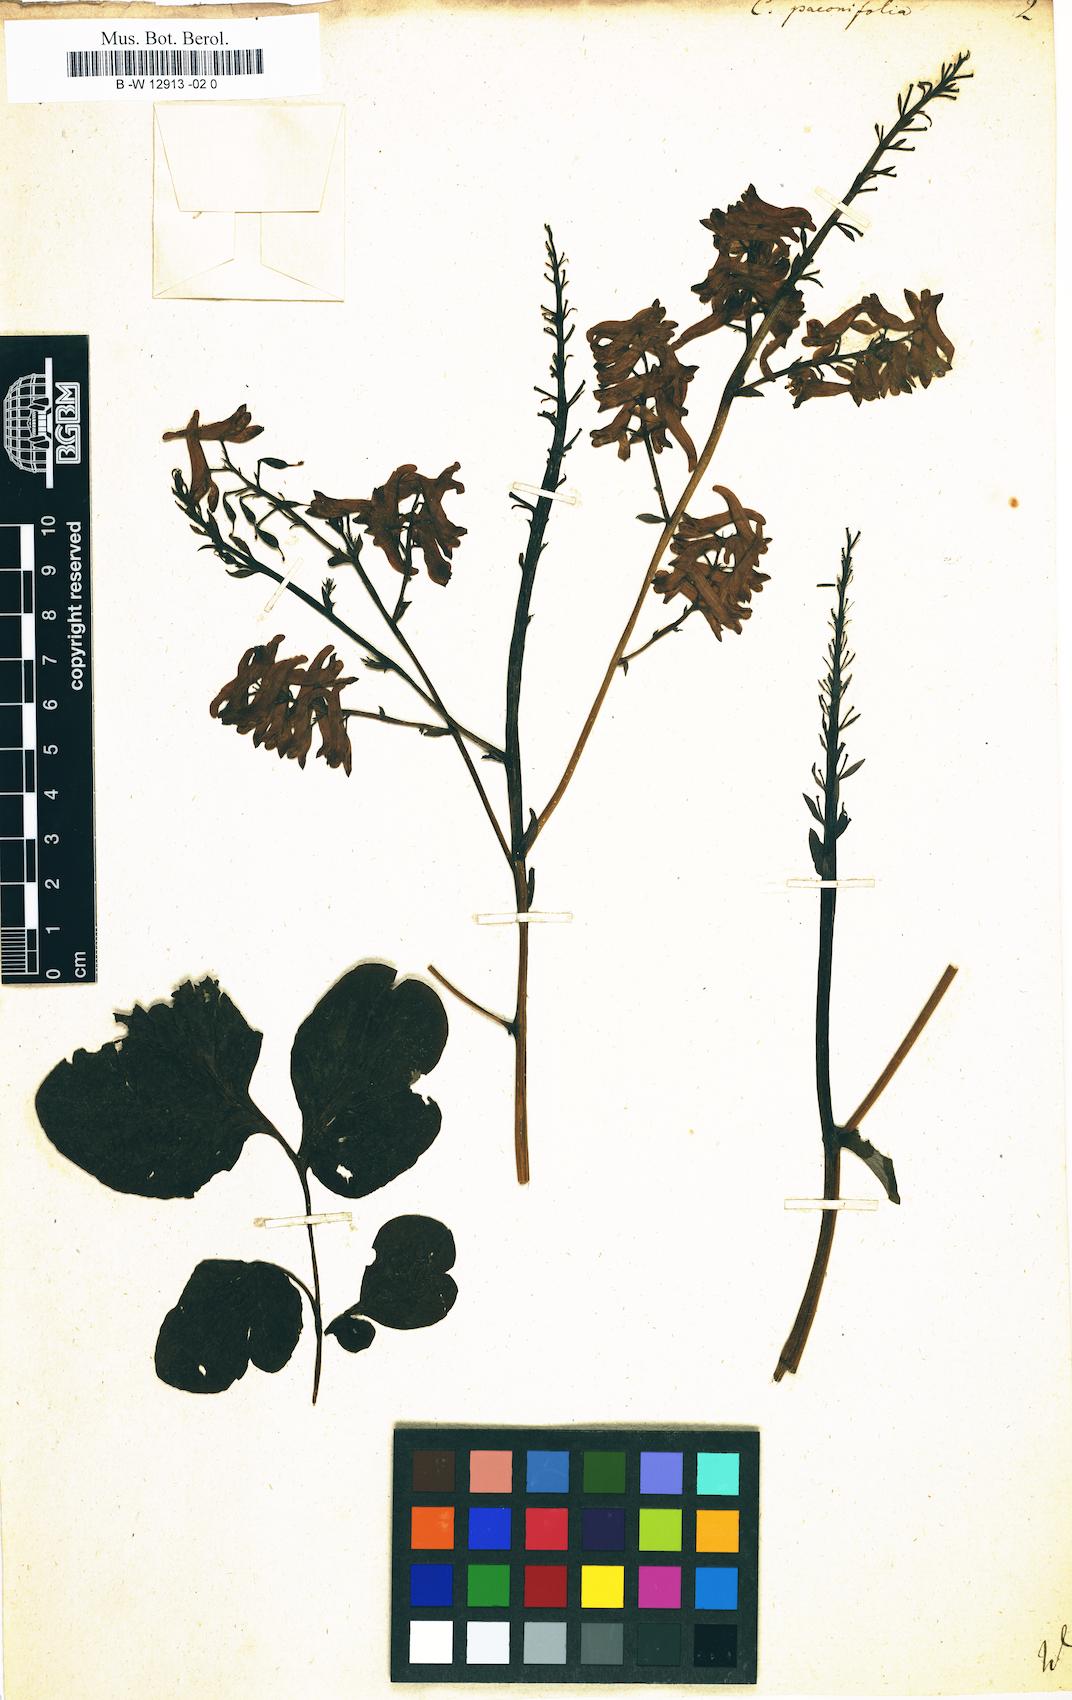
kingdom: Plantae
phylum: Tracheophyta
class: Magnoliopsida
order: Ranunculales
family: Papaveraceae
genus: Corydalis
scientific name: Corydalis paeoniifolia
